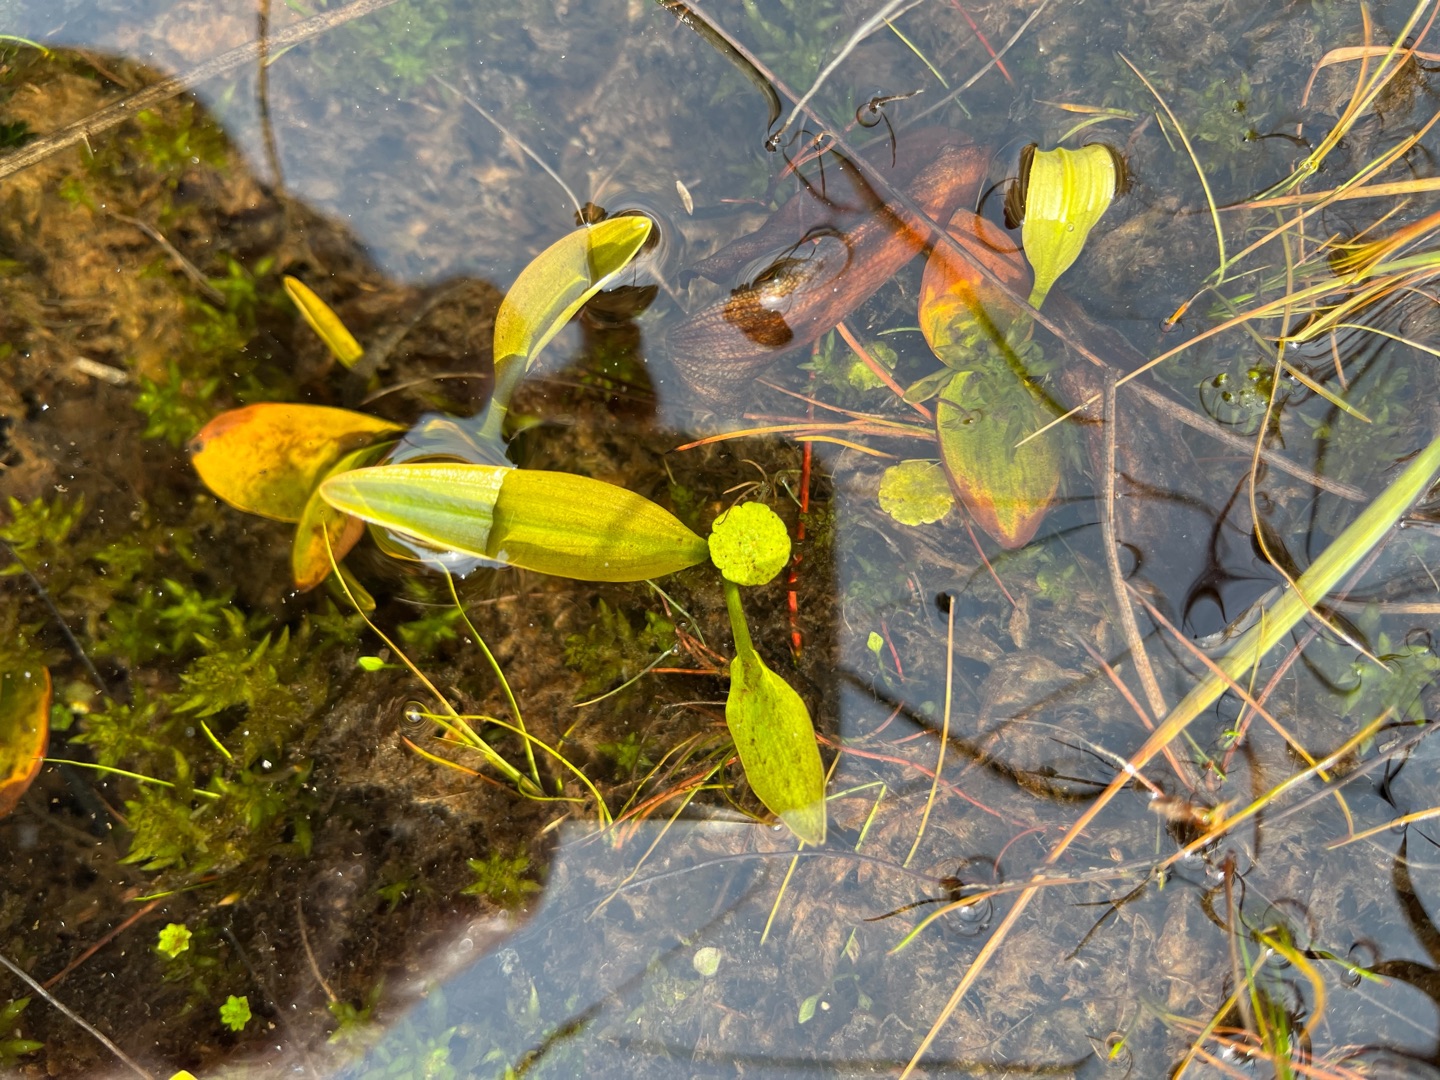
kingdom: Plantae
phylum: Tracheophyta
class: Liliopsida
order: Alismatales
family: Alismataceae
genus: Alisma
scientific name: Alisma plantago-aquatica
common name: Vejbred-skeblad
